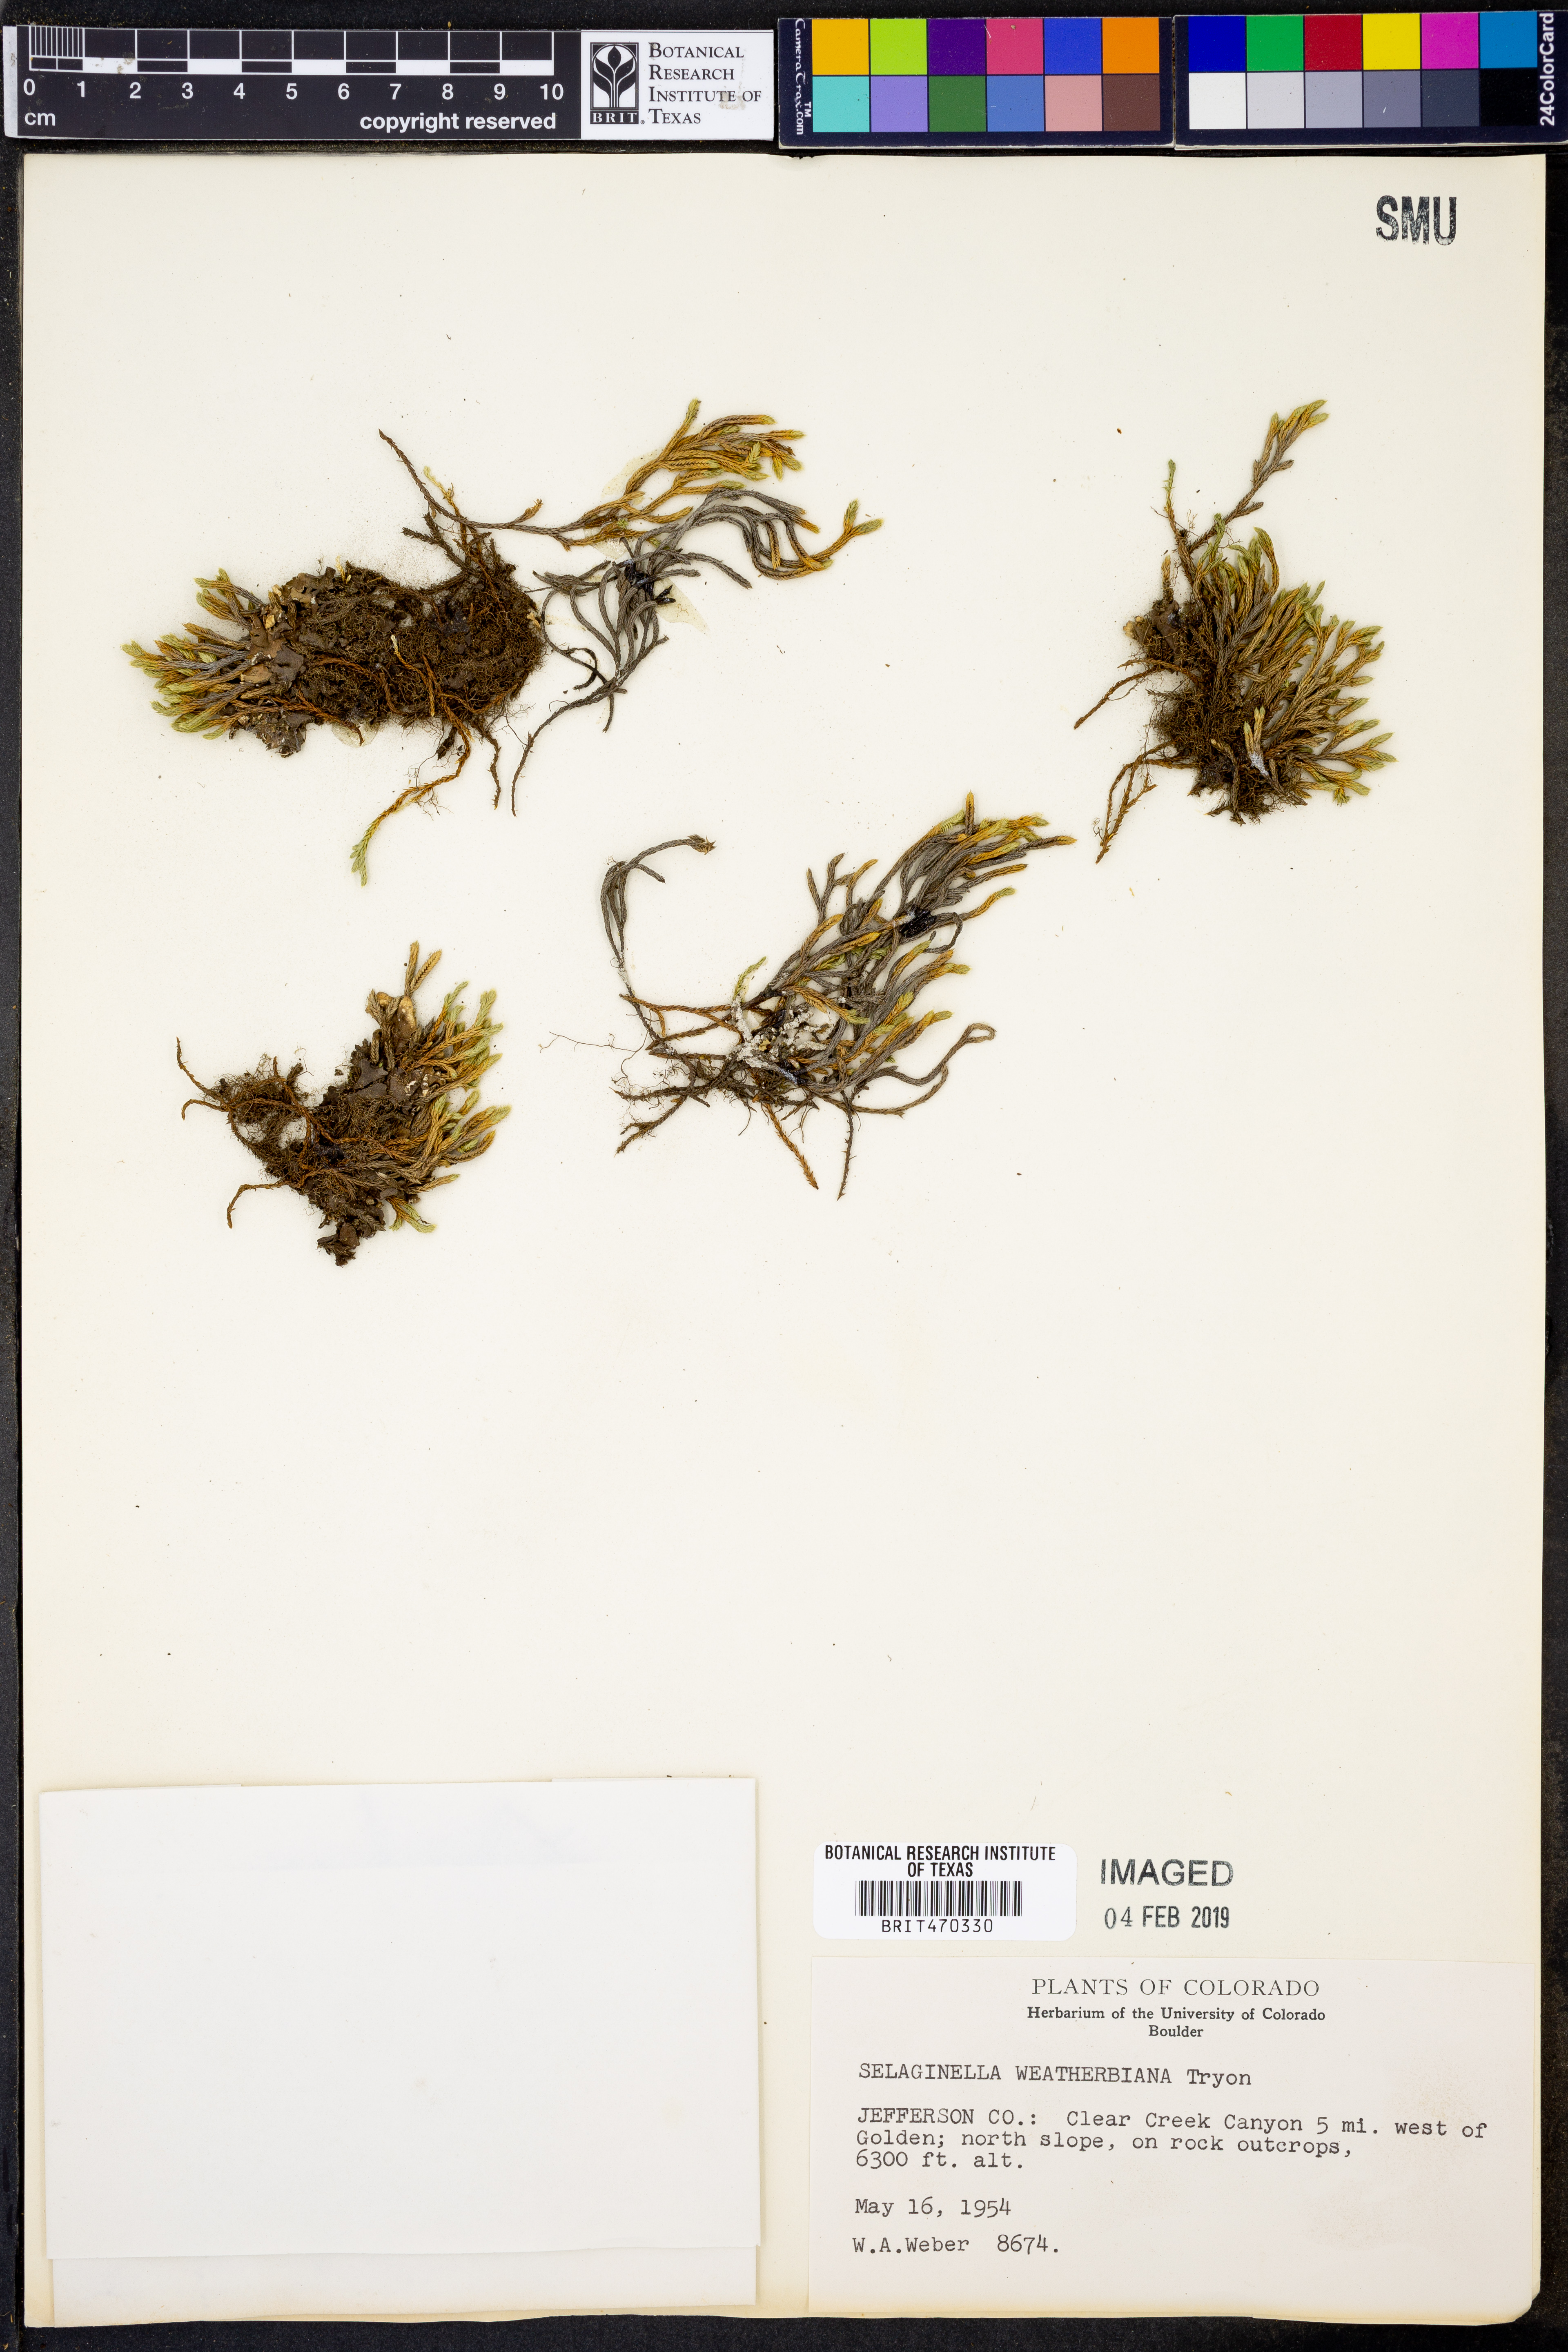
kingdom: Plantae
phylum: Tracheophyta
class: Lycopodiopsida
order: Selaginellales
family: Selaginellaceae
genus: Selaginella
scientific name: Selaginella weatherbiana
